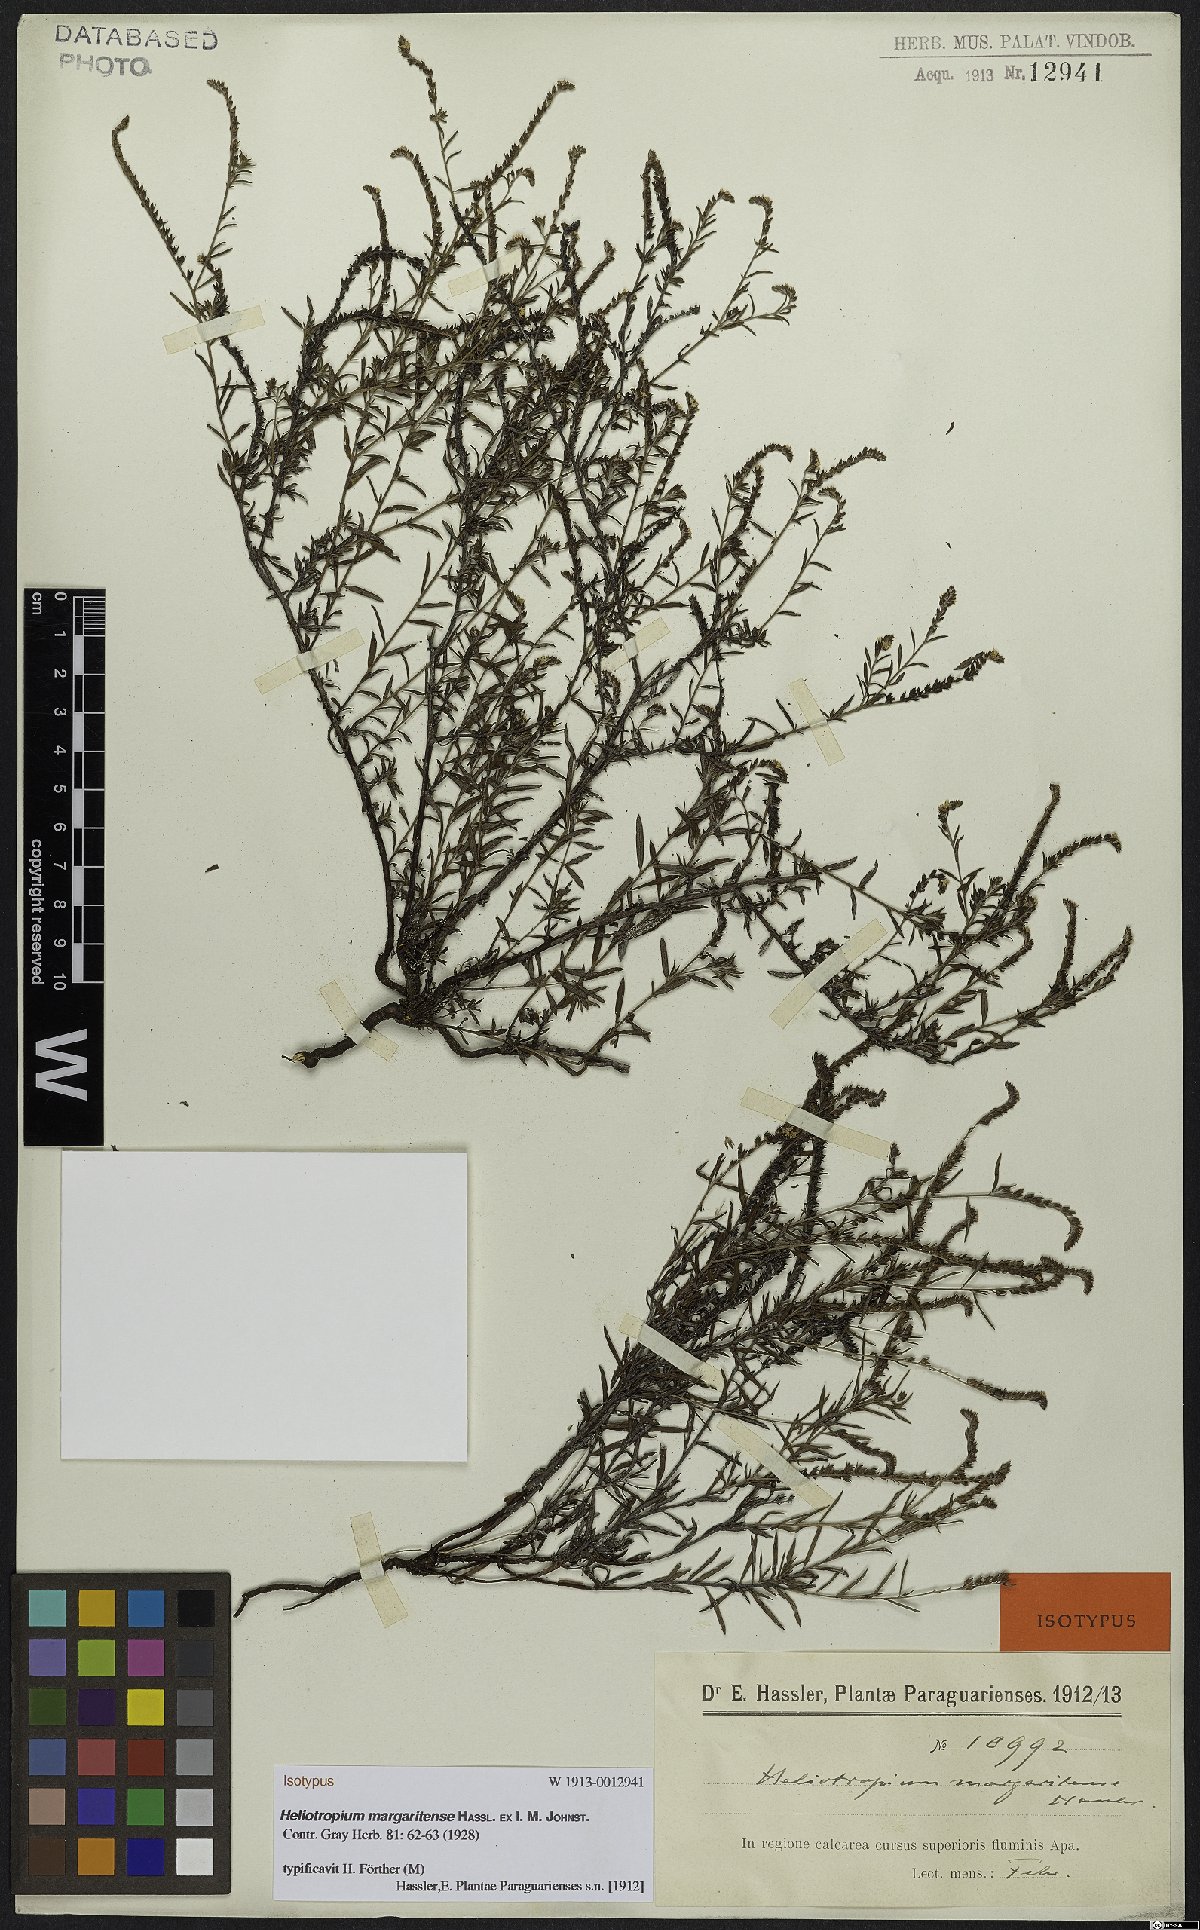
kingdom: Plantae
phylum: Tracheophyta
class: Magnoliopsida
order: Boraginales
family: Heliotropiaceae
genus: Euploca
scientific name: Euploca margaritensis
